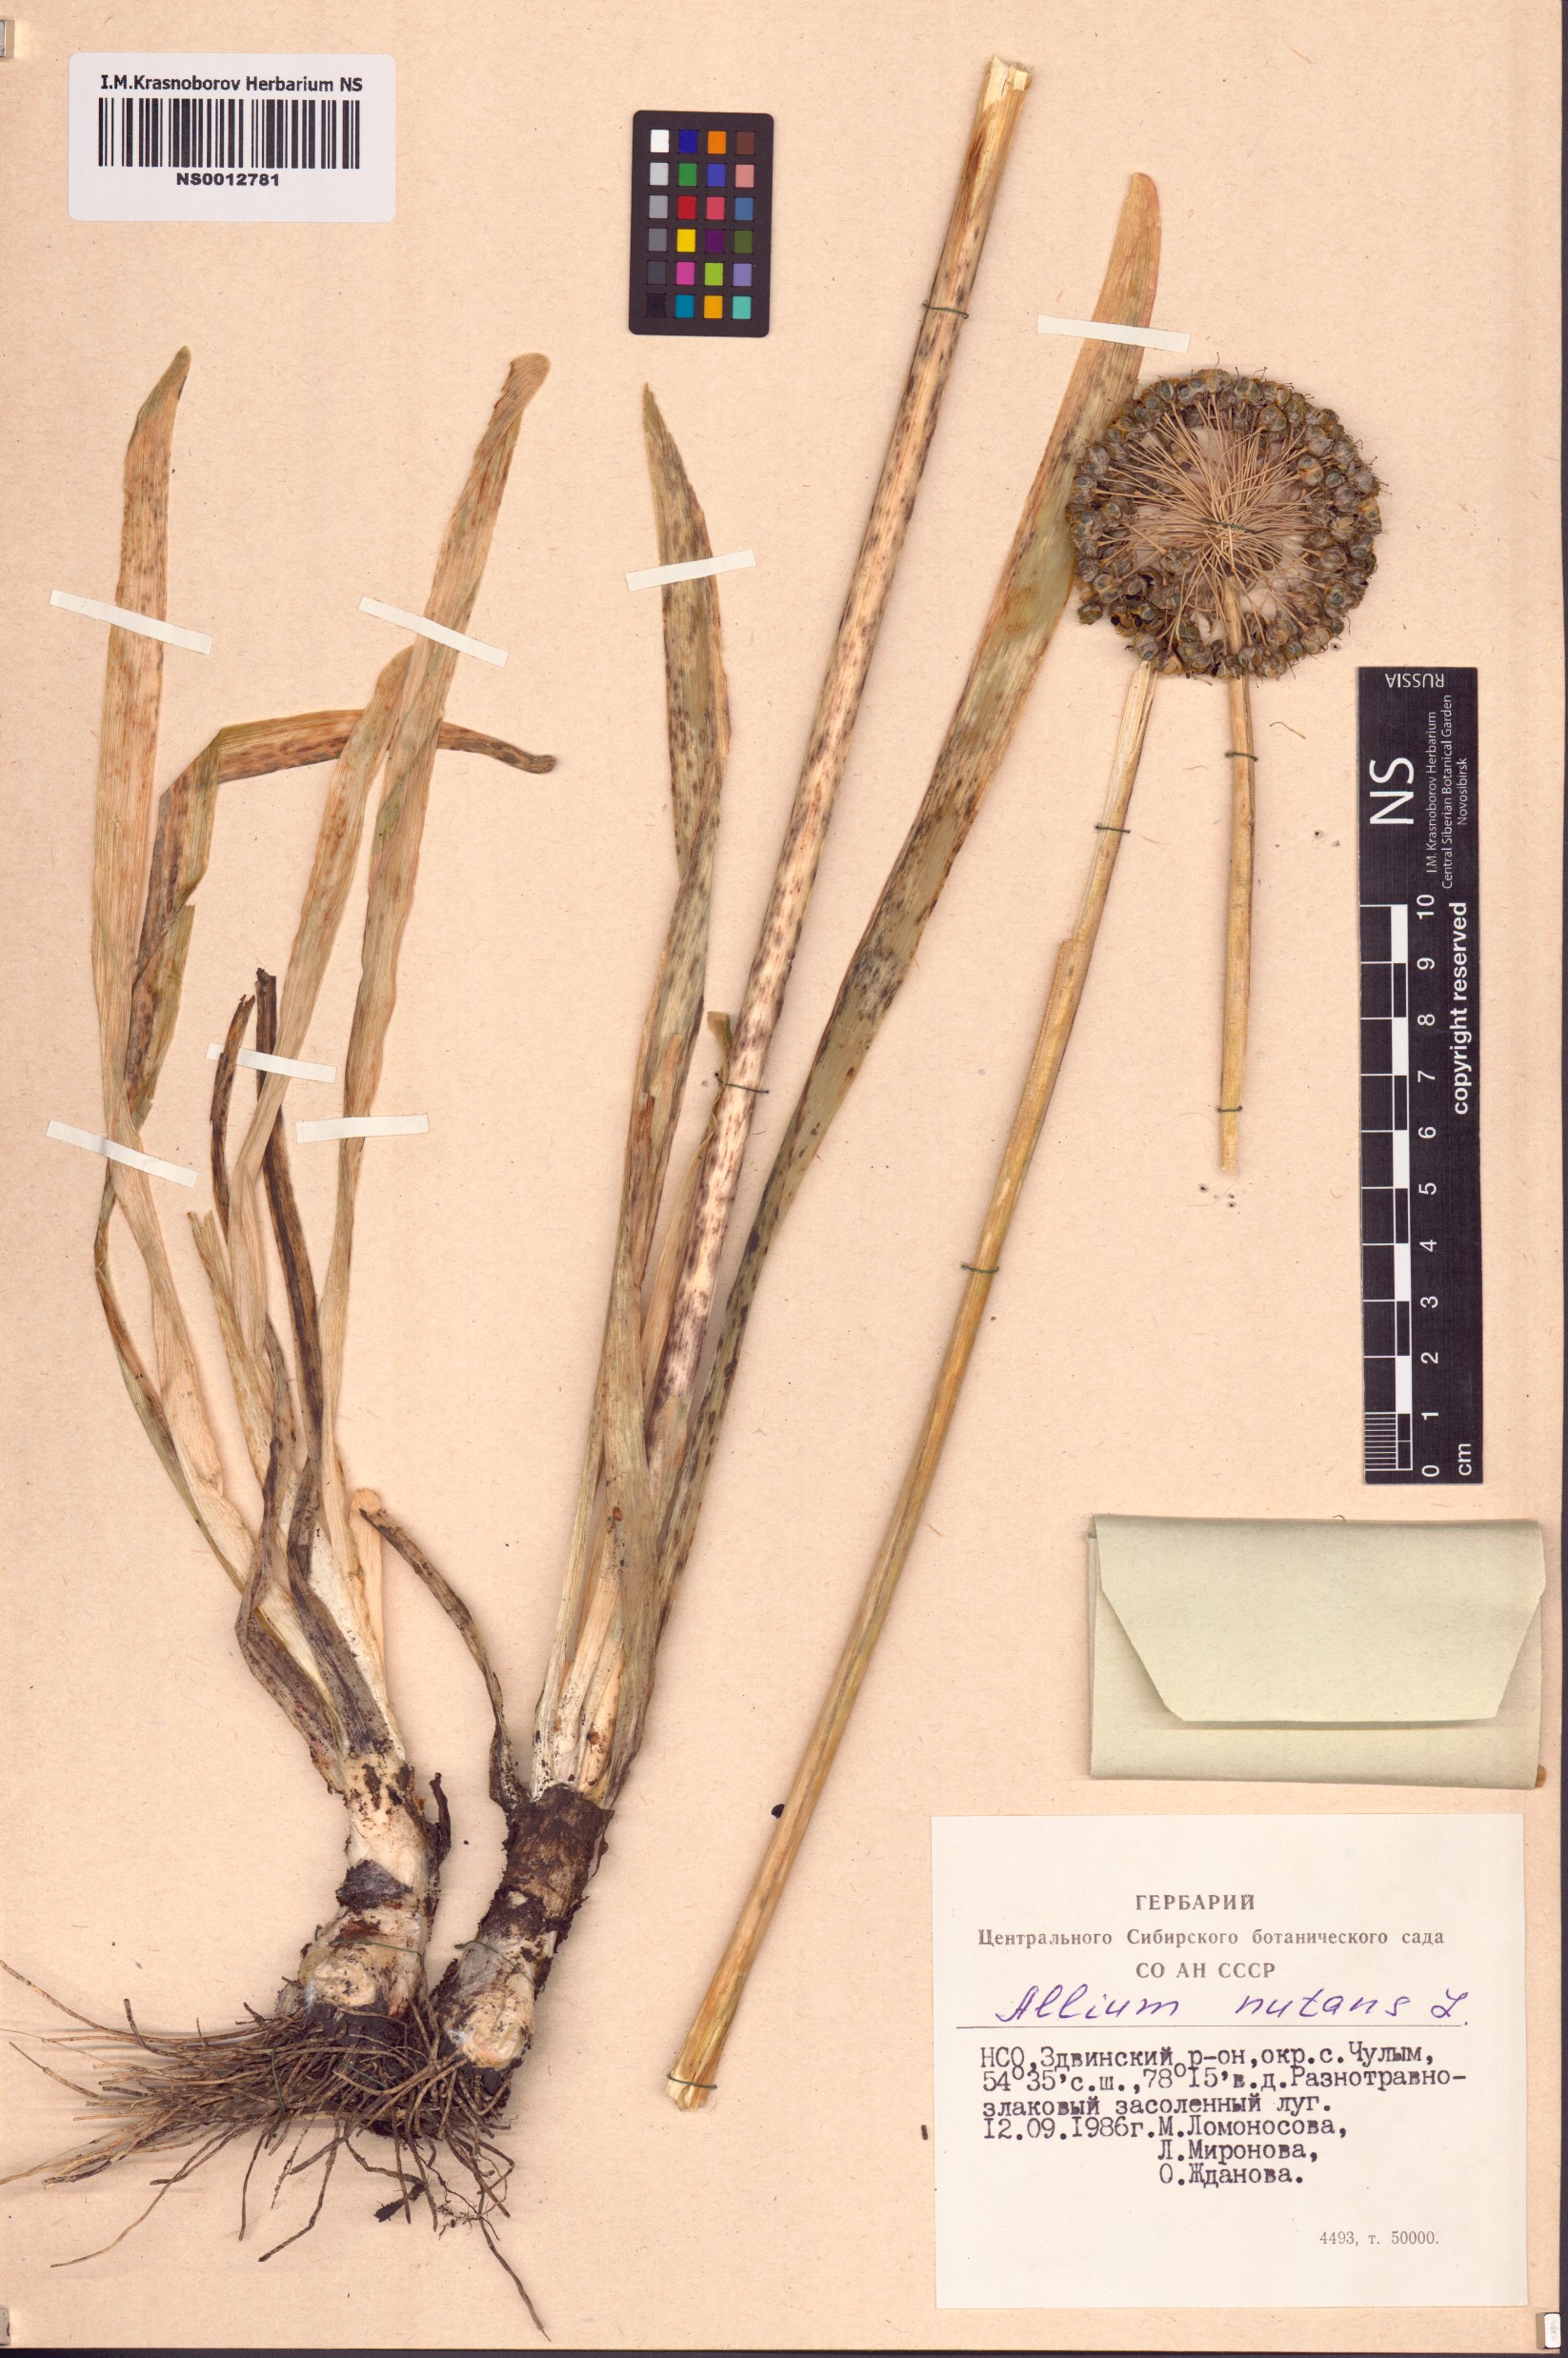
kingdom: Plantae
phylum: Tracheophyta
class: Liliopsida
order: Asparagales
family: Amaryllidaceae
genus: Allium
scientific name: Allium nutans
